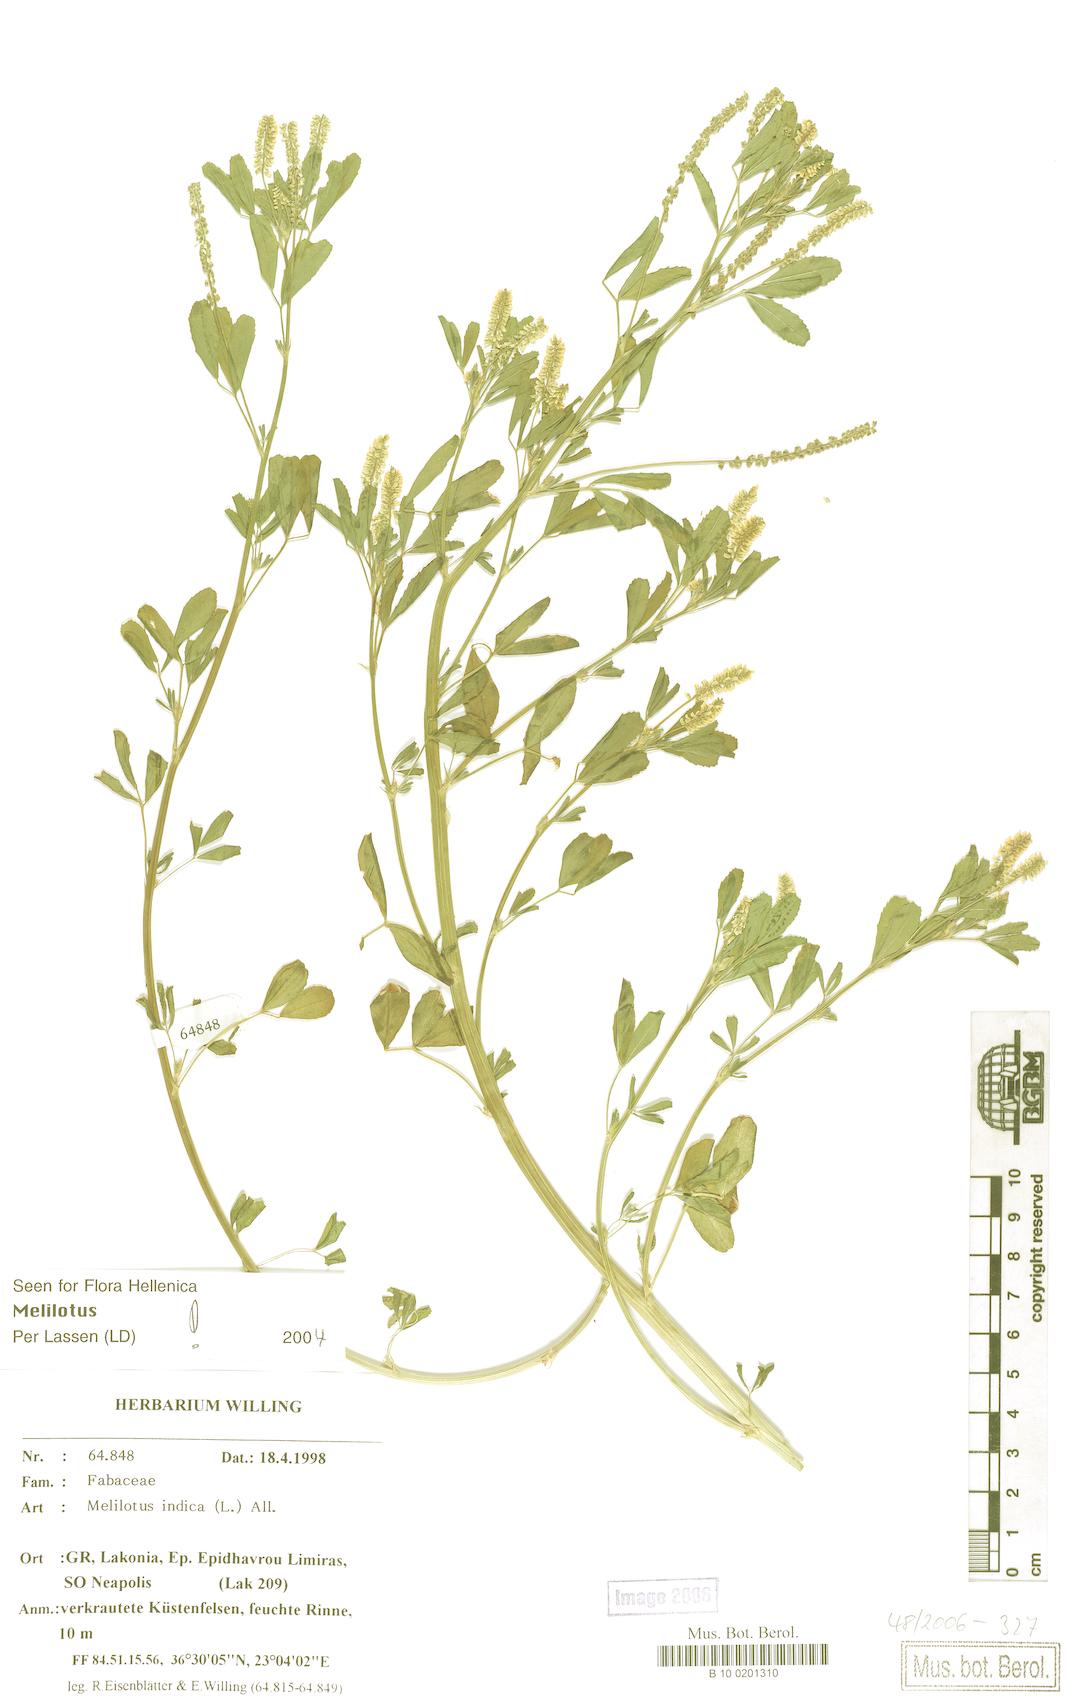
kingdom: Plantae
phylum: Tracheophyta
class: Magnoliopsida
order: Fabales
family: Fabaceae
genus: Melilotus
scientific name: Melilotus indicus
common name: Small melilot
